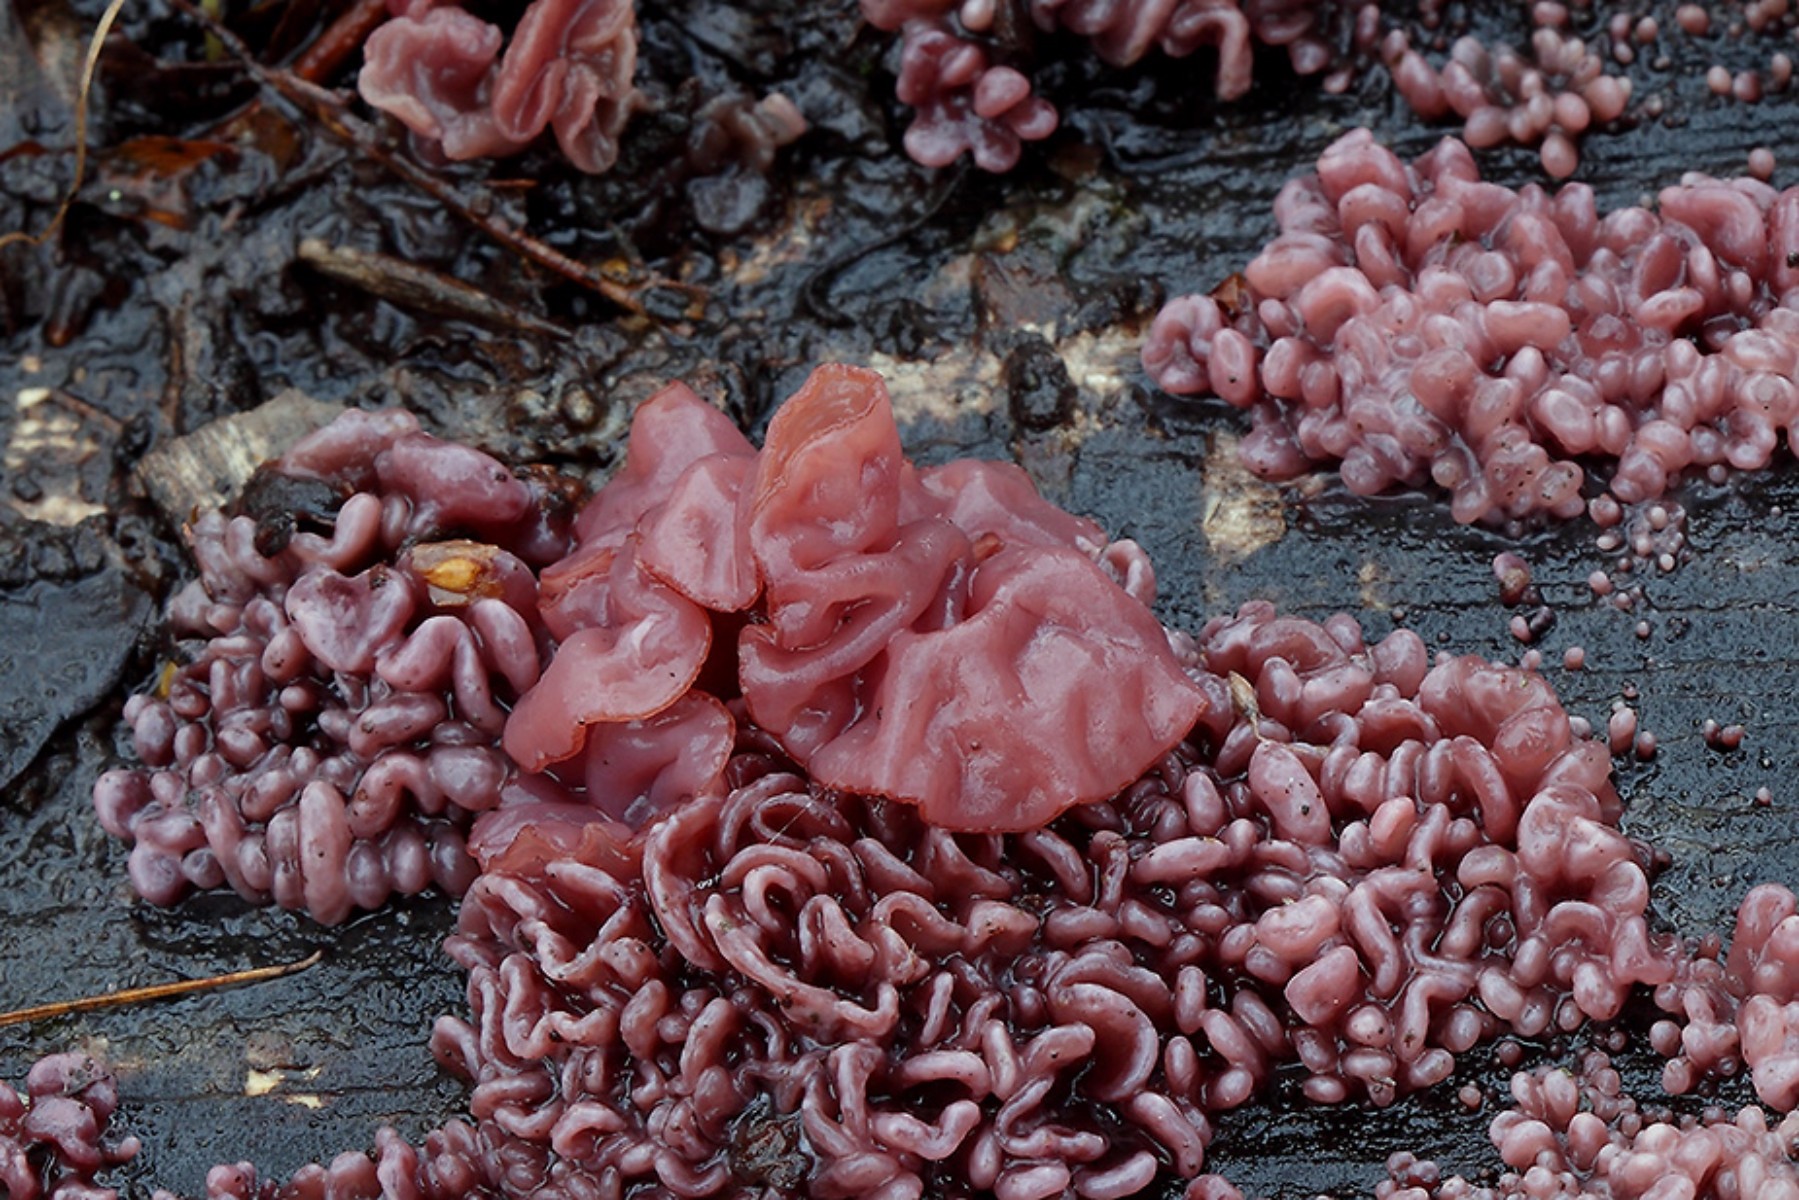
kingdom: Fungi
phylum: Ascomycota
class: Leotiomycetes
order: Helotiales
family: Gelatinodiscaceae
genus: Ascocoryne
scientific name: Ascocoryne sarcoides
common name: rødlilla sejskive
